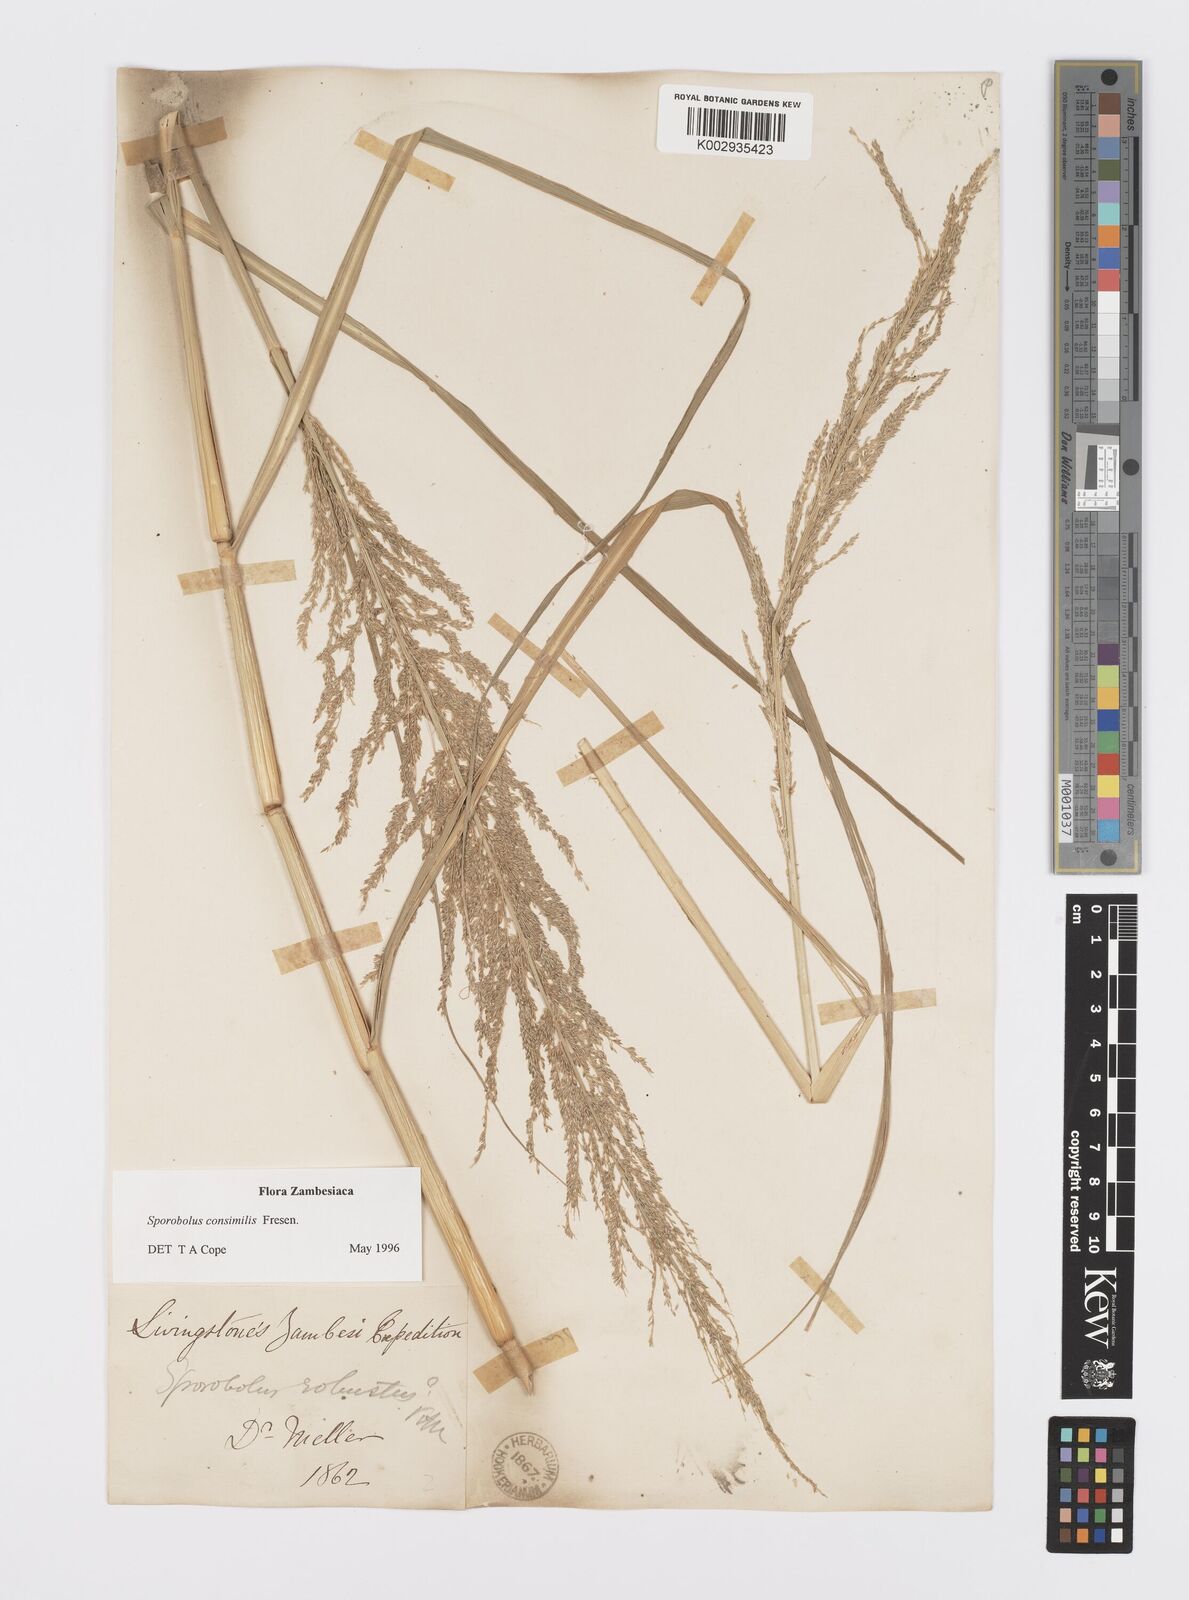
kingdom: Plantae
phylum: Tracheophyta
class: Liliopsida
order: Poales
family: Poaceae
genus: Sporobolus
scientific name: Sporobolus consimilis
